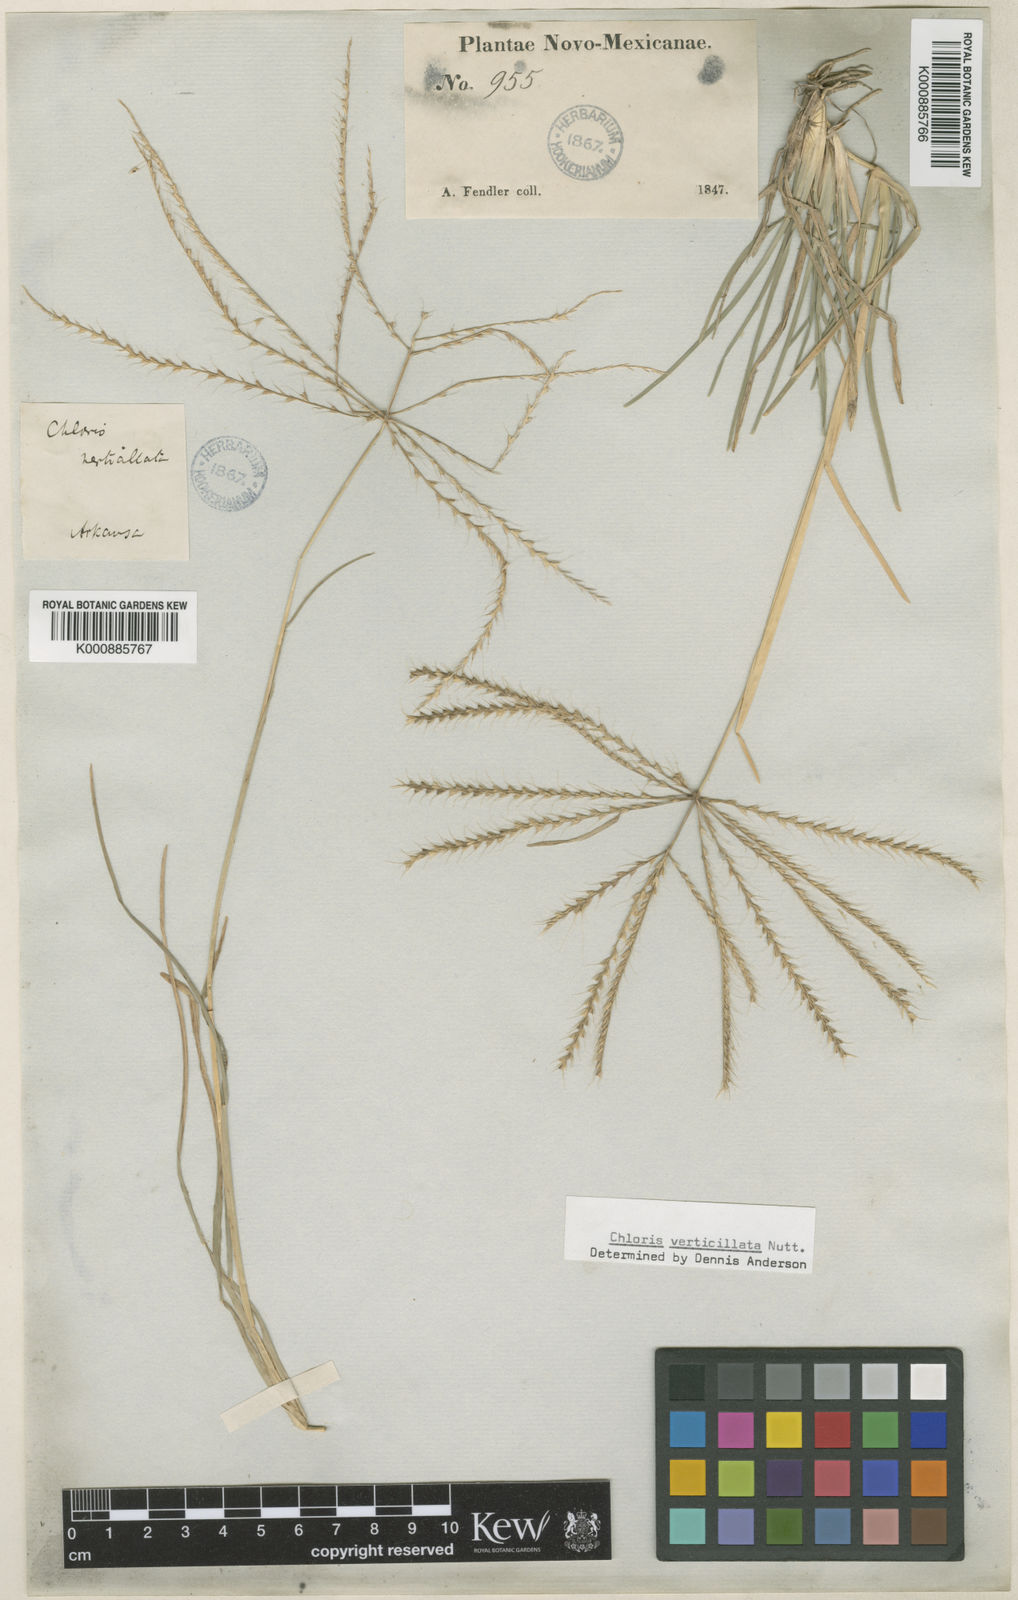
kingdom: Plantae
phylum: Tracheophyta
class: Liliopsida
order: Poales
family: Poaceae
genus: Chloris
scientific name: Chloris verticillata
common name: Tumble windmill grass
